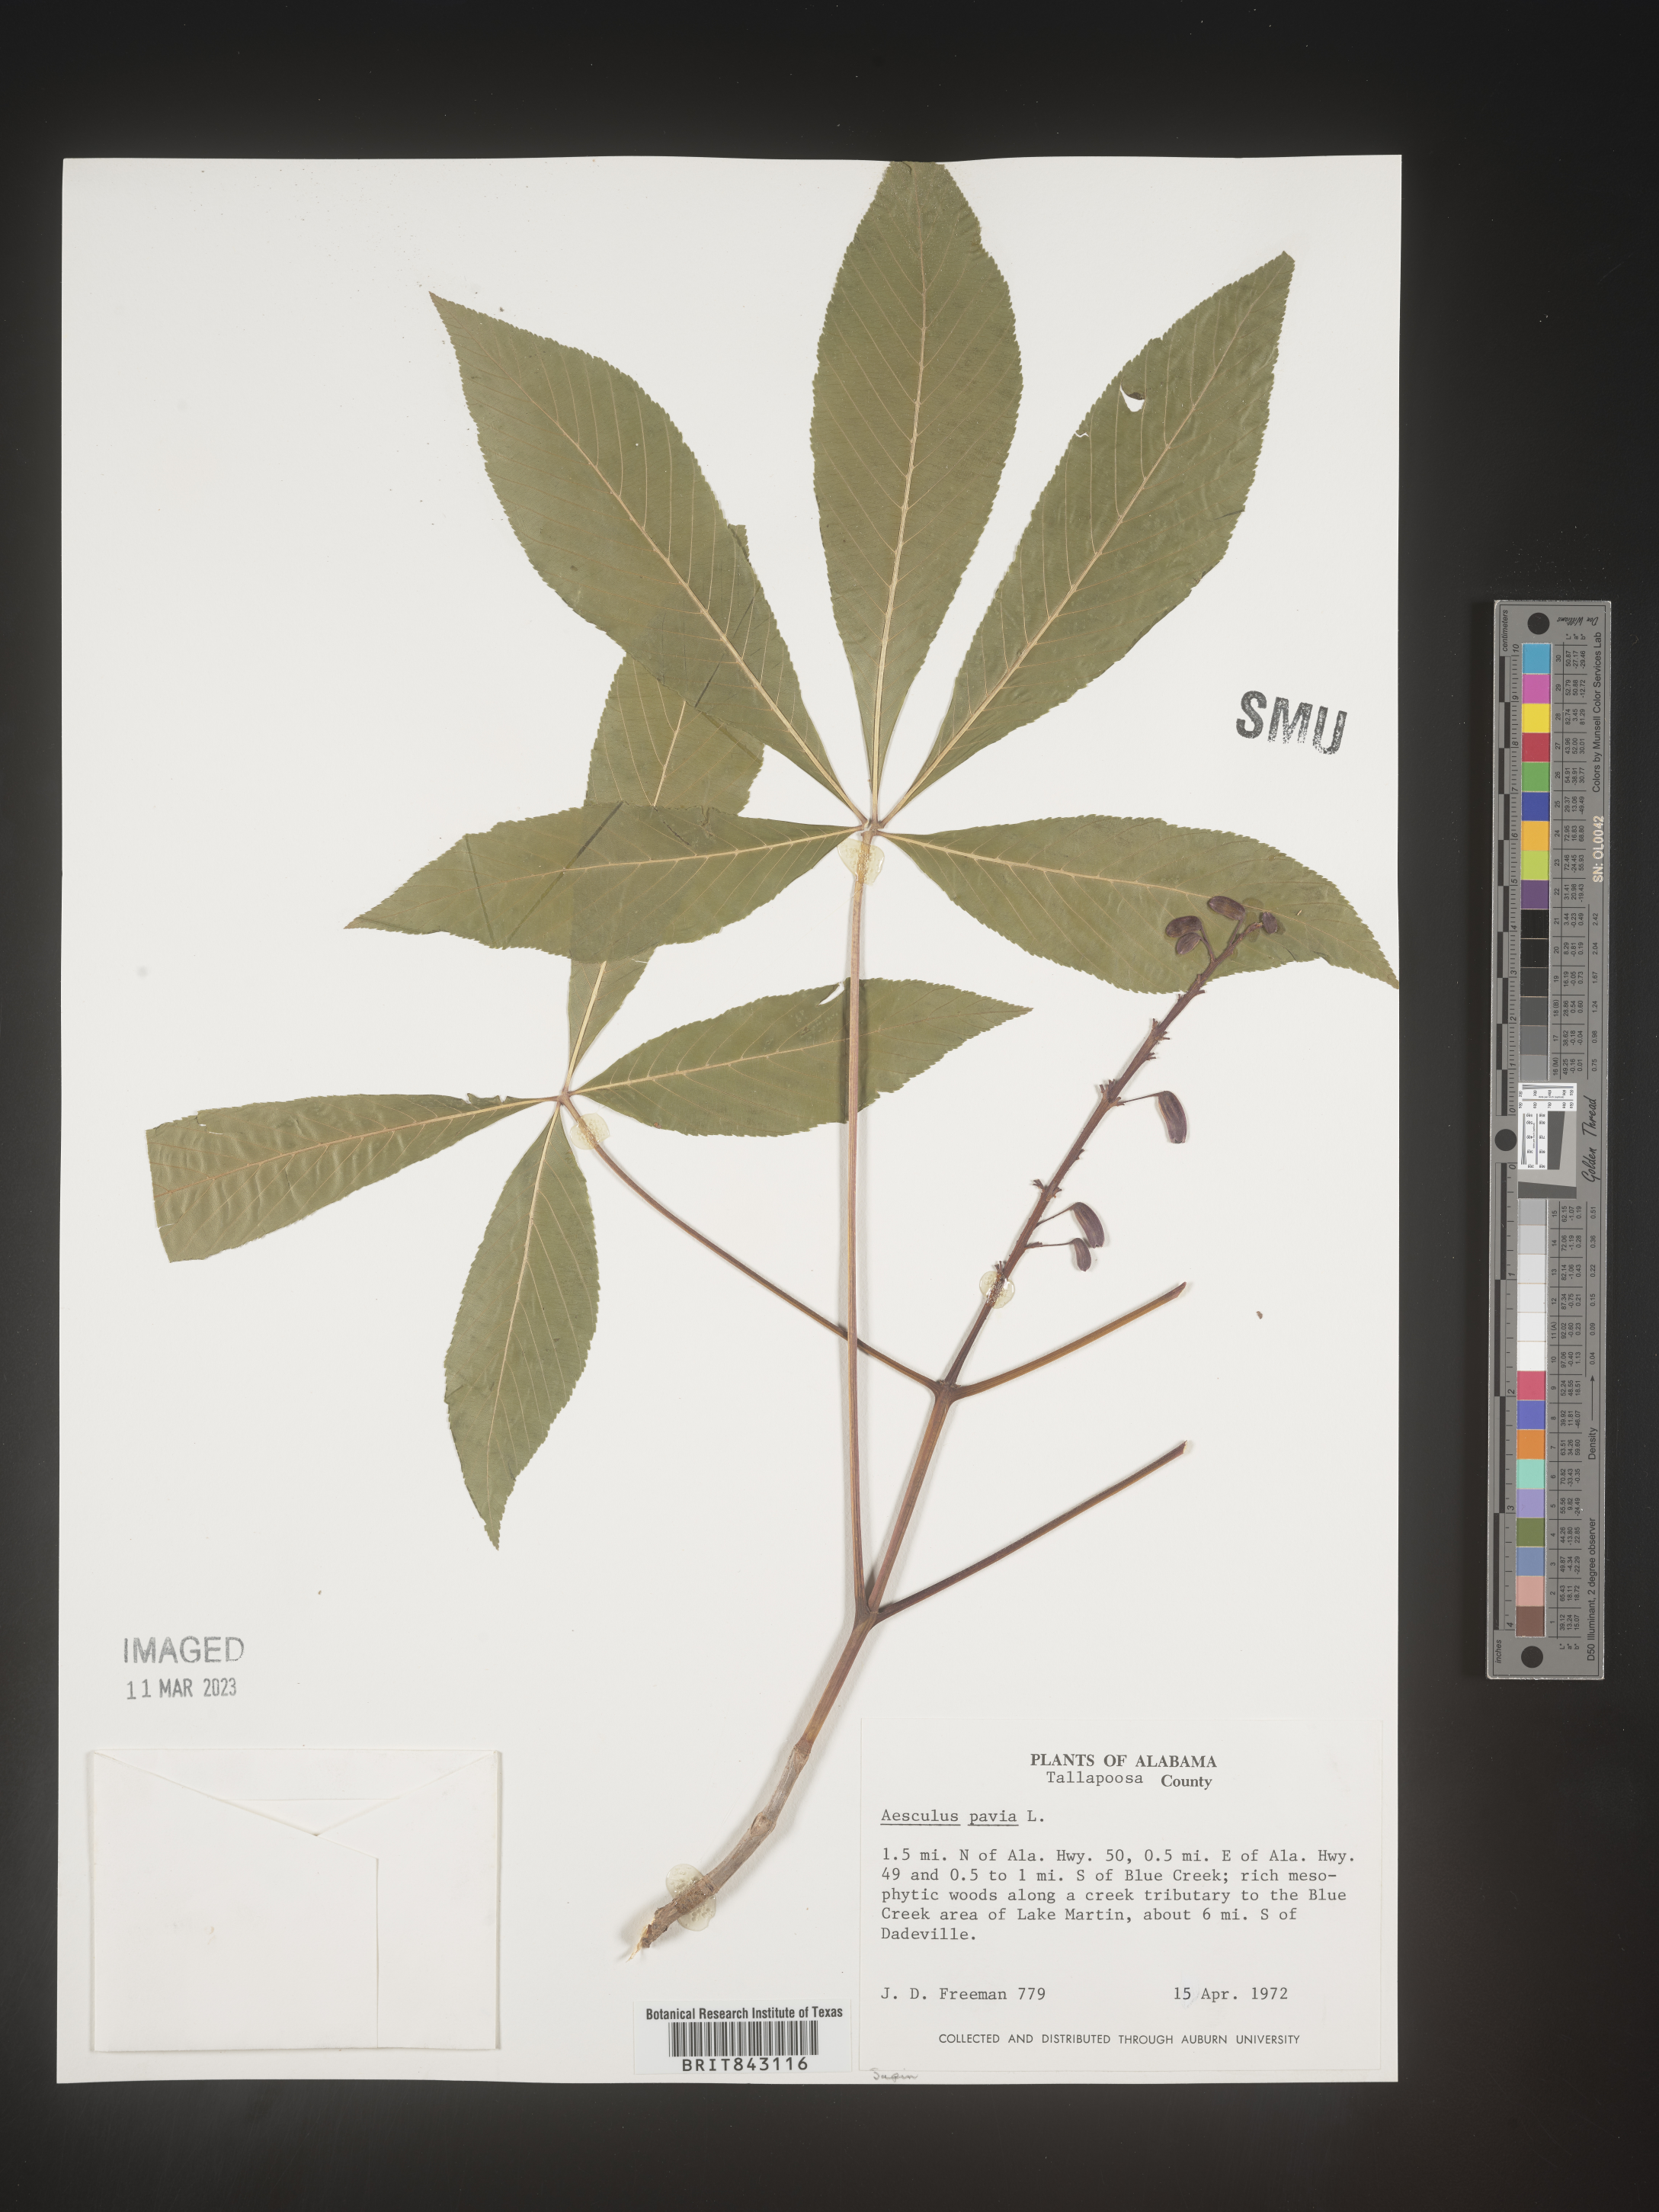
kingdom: Plantae
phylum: Tracheophyta
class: Magnoliopsida
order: Sapindales
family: Sapindaceae
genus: Aesculus
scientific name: Aesculus pavia
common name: Red buckeye
